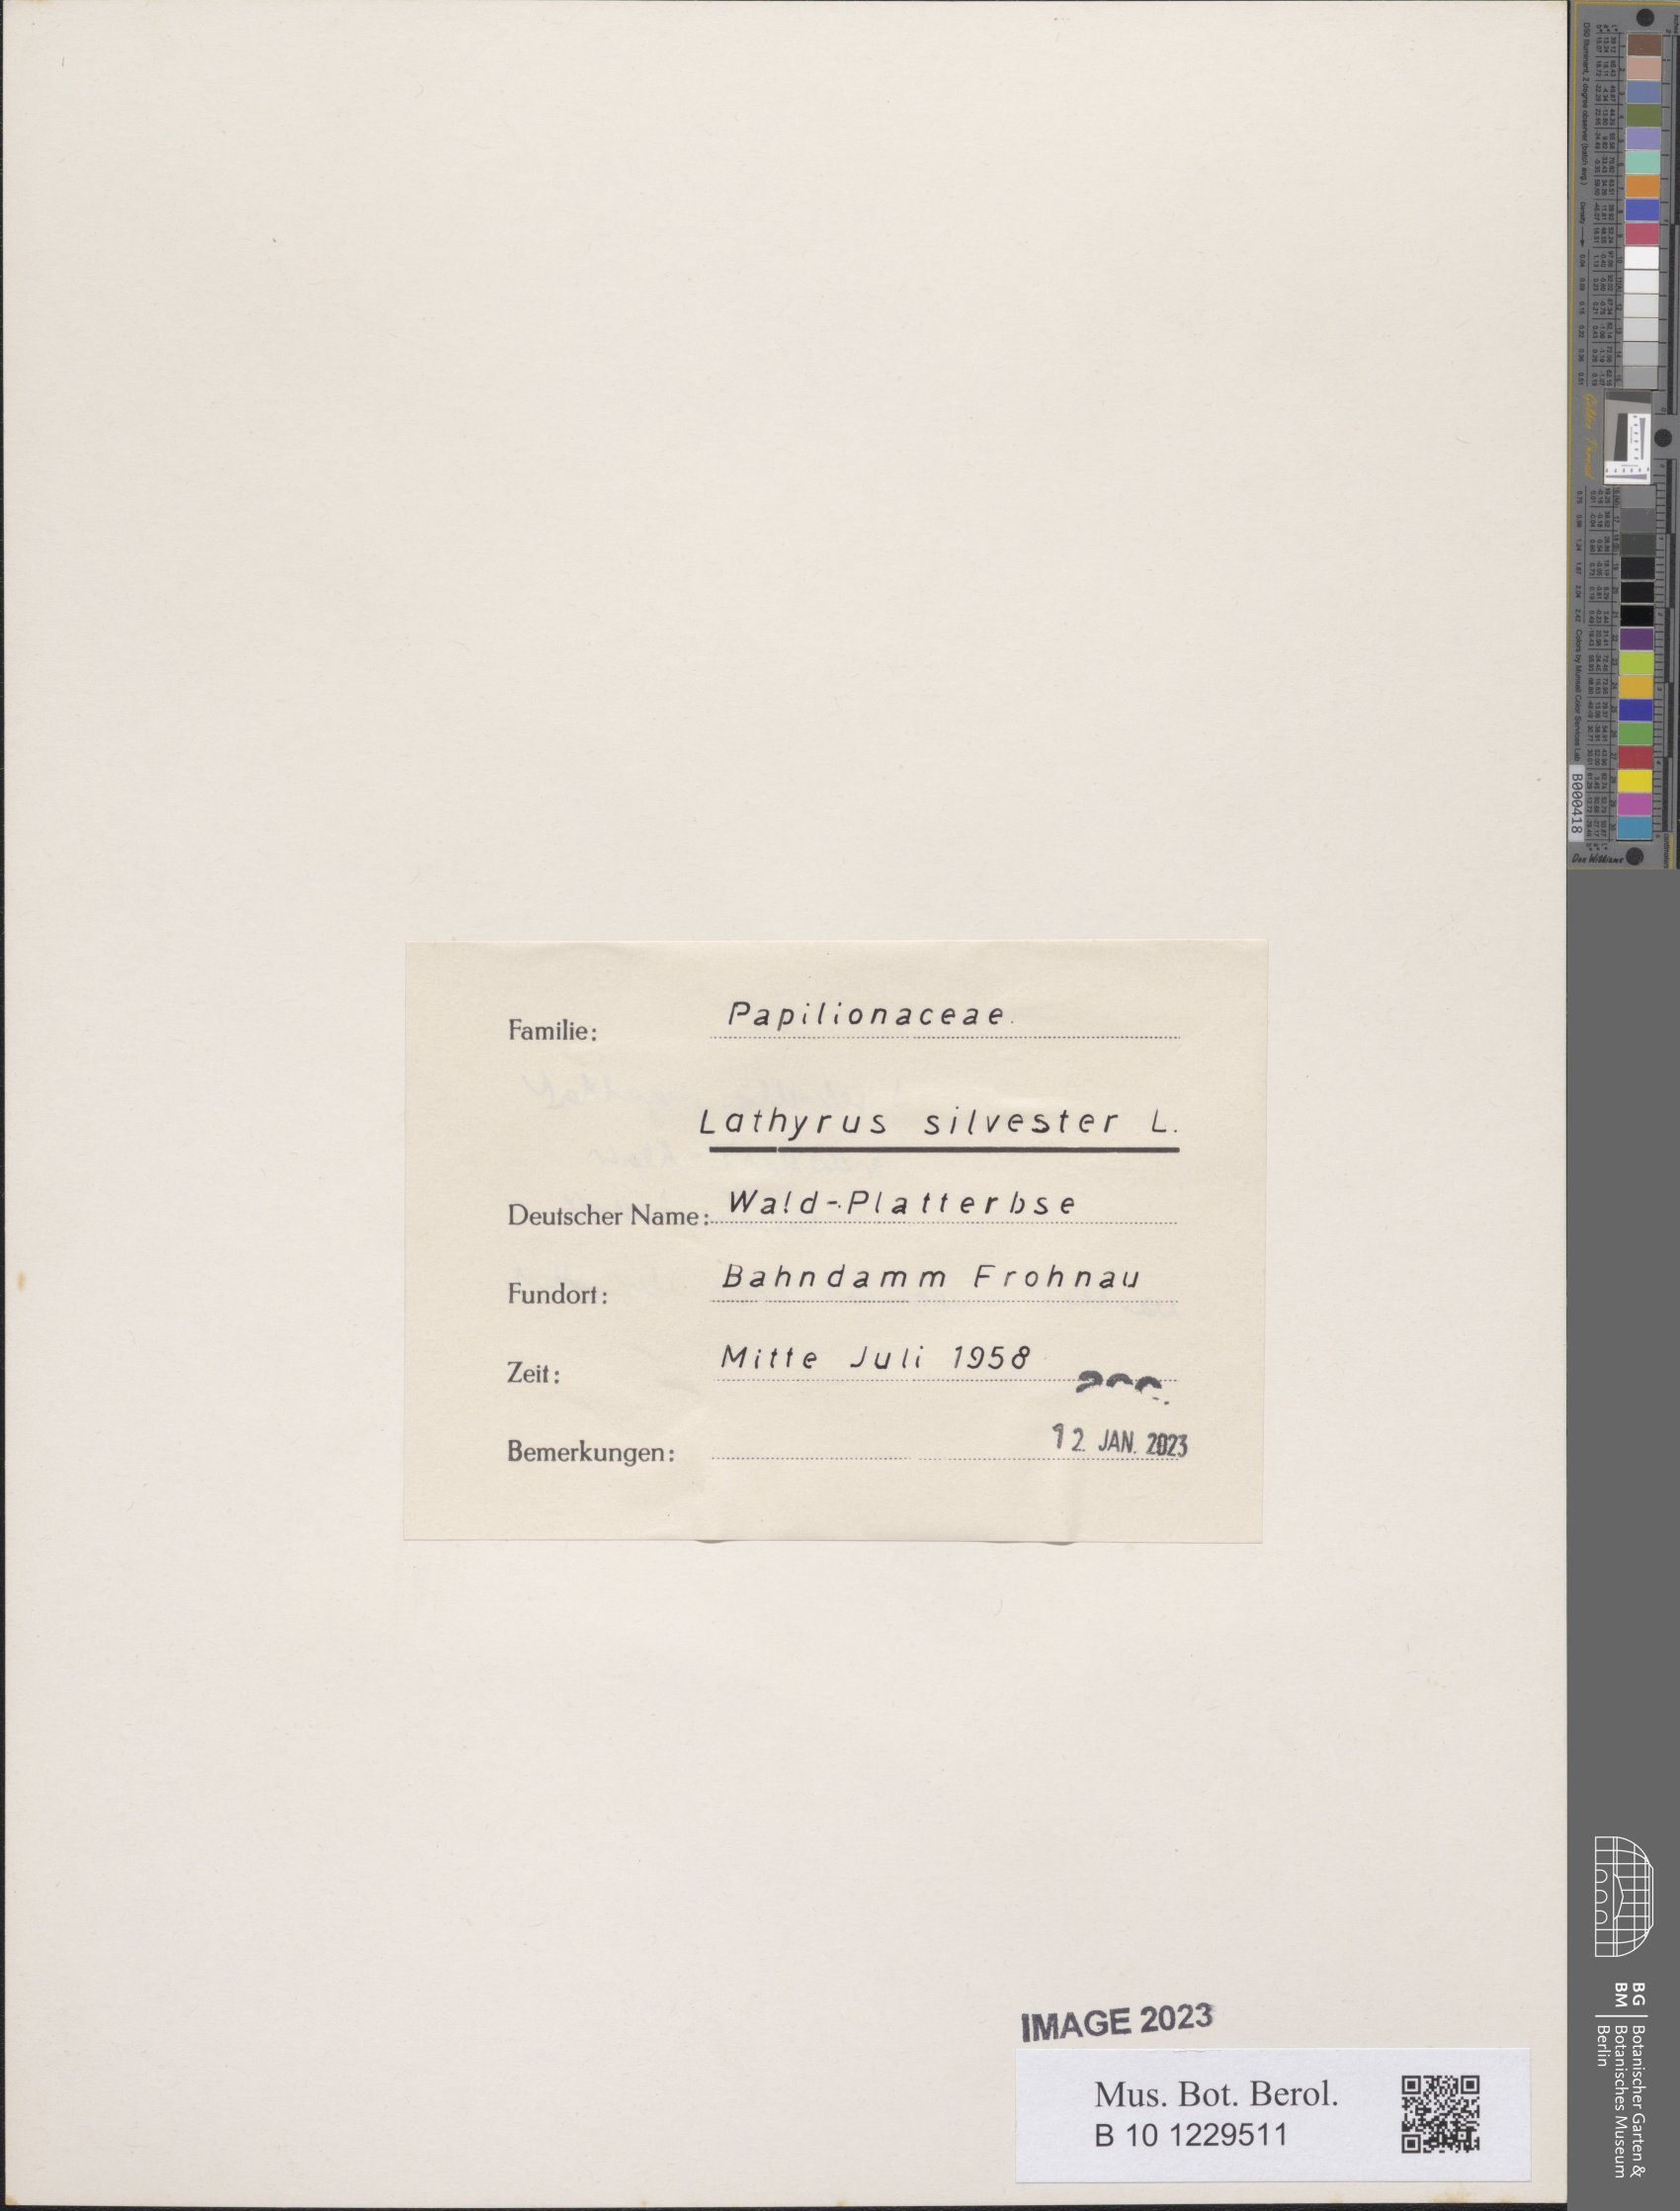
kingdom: Plantae
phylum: Tracheophyta
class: Magnoliopsida
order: Fabales
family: Fabaceae
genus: Lathyrus
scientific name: Lathyrus sylvestris
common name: Flat pea
